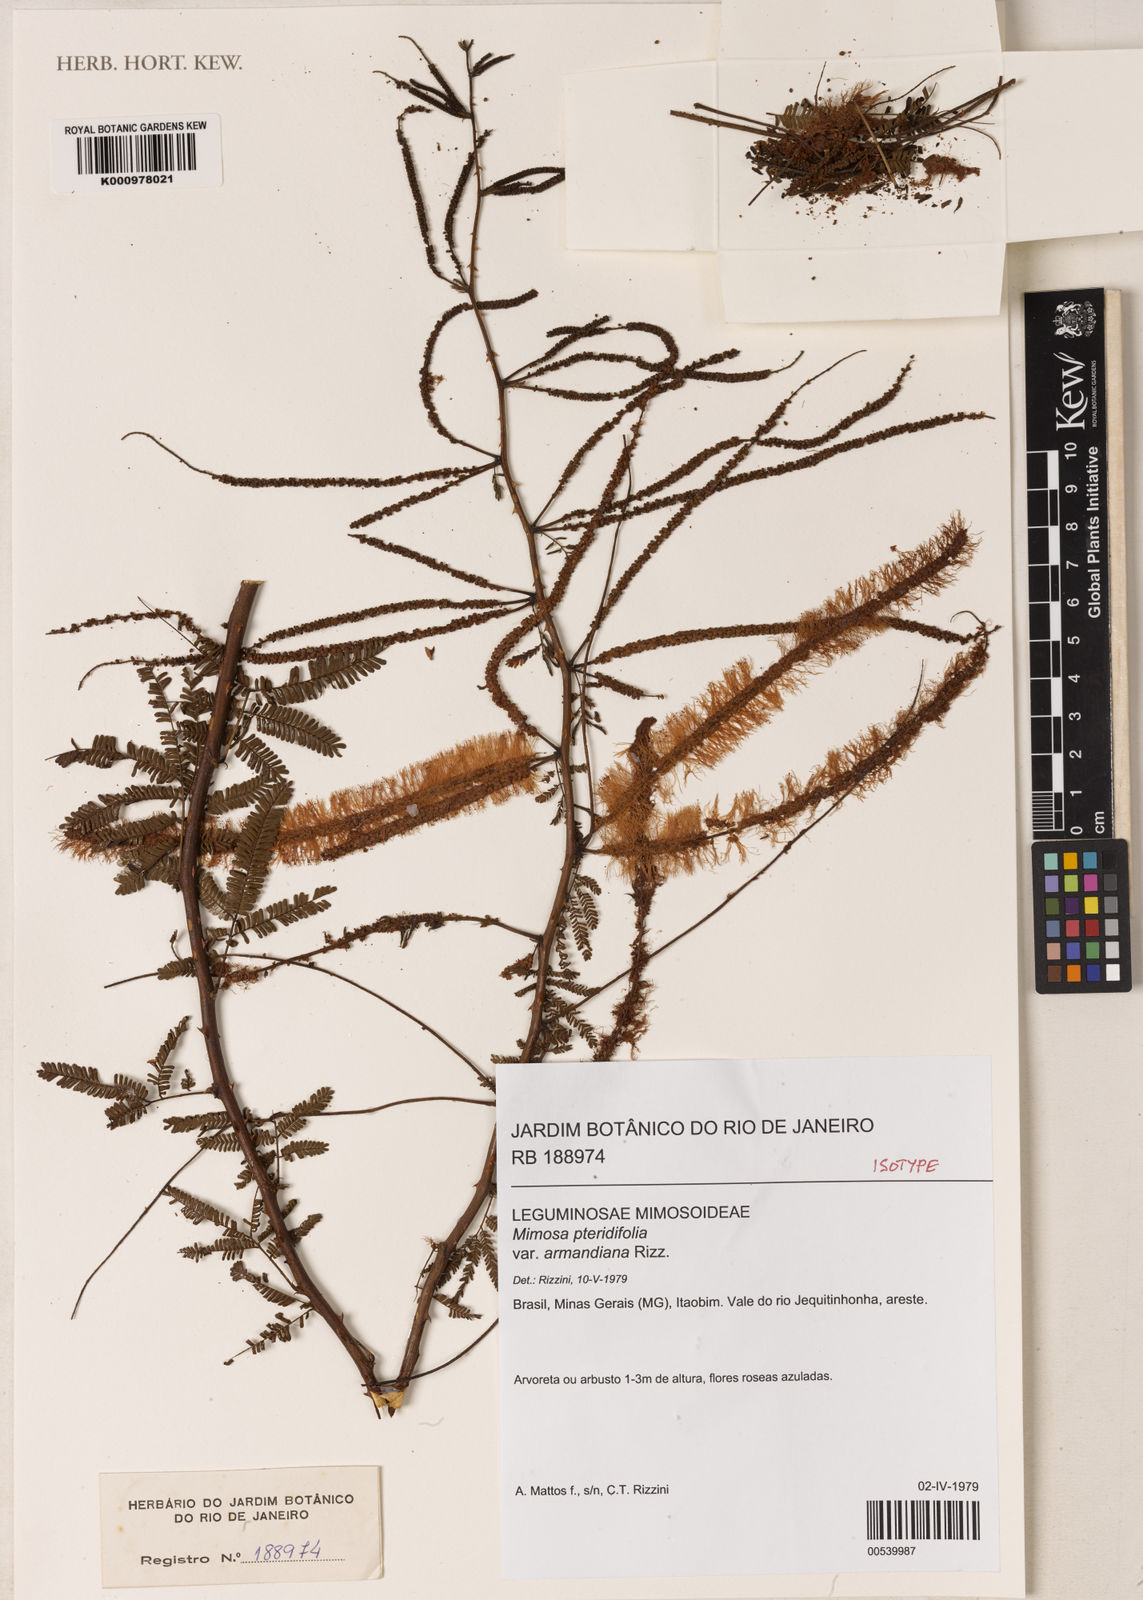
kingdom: Plantae
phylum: Tracheophyta
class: Magnoliopsida
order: Fabales
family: Fabaceae
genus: Mimosa
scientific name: Mimosa pteridifolia
